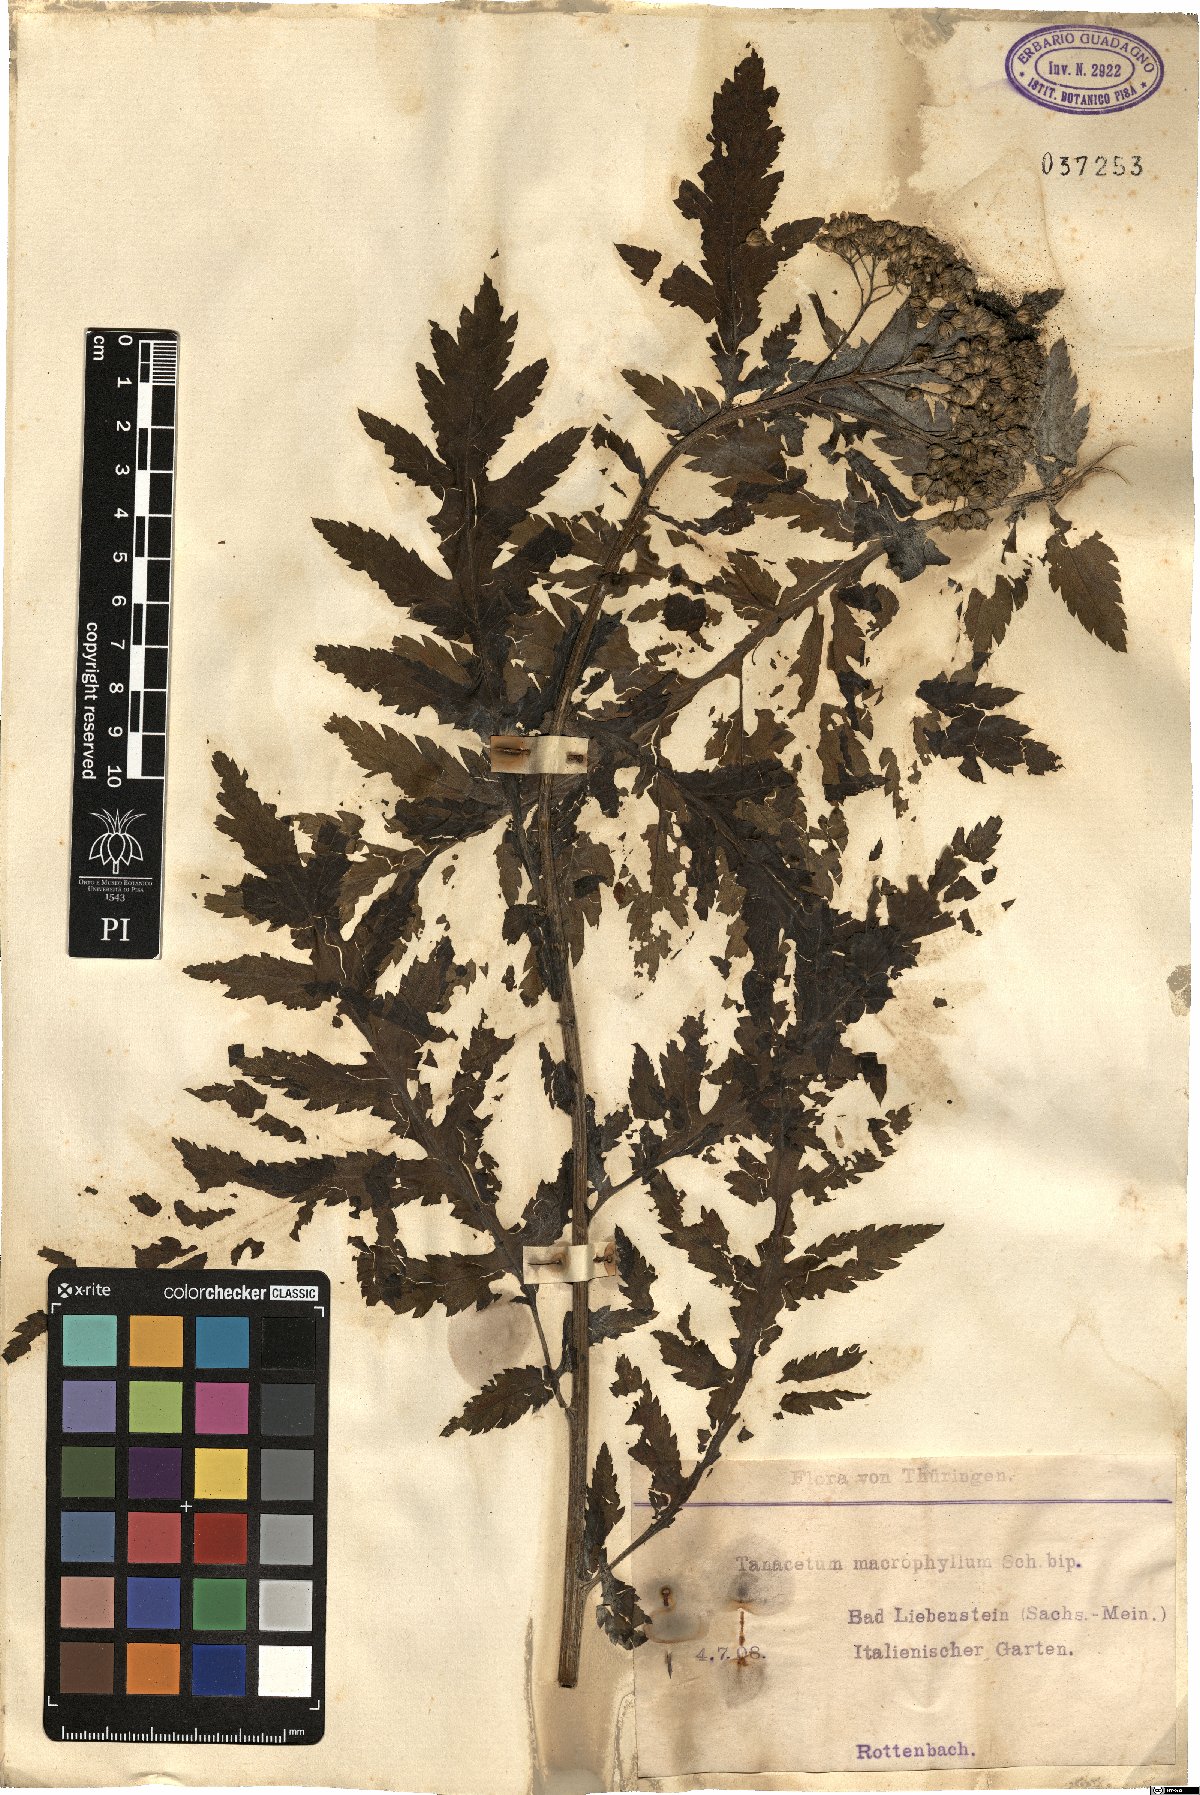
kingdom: Plantae
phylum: Tracheophyta
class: Magnoliopsida
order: Asterales
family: Asteraceae
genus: Tanacetum
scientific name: Tanacetum macrophyllum
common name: Rayed tansy
